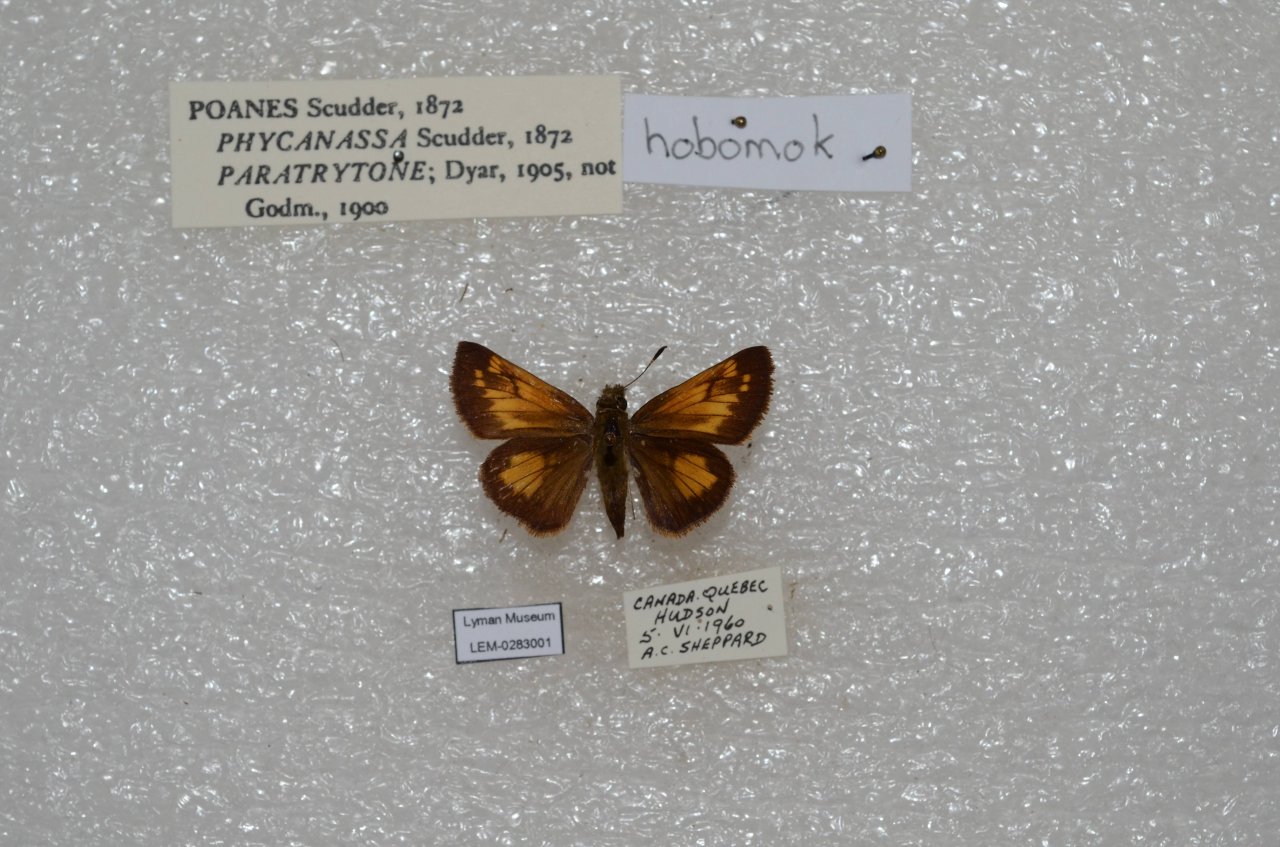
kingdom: Animalia
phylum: Arthropoda
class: Insecta
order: Lepidoptera
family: Hesperiidae
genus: Lon
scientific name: Lon hobomok
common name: Hobomok Skipper
